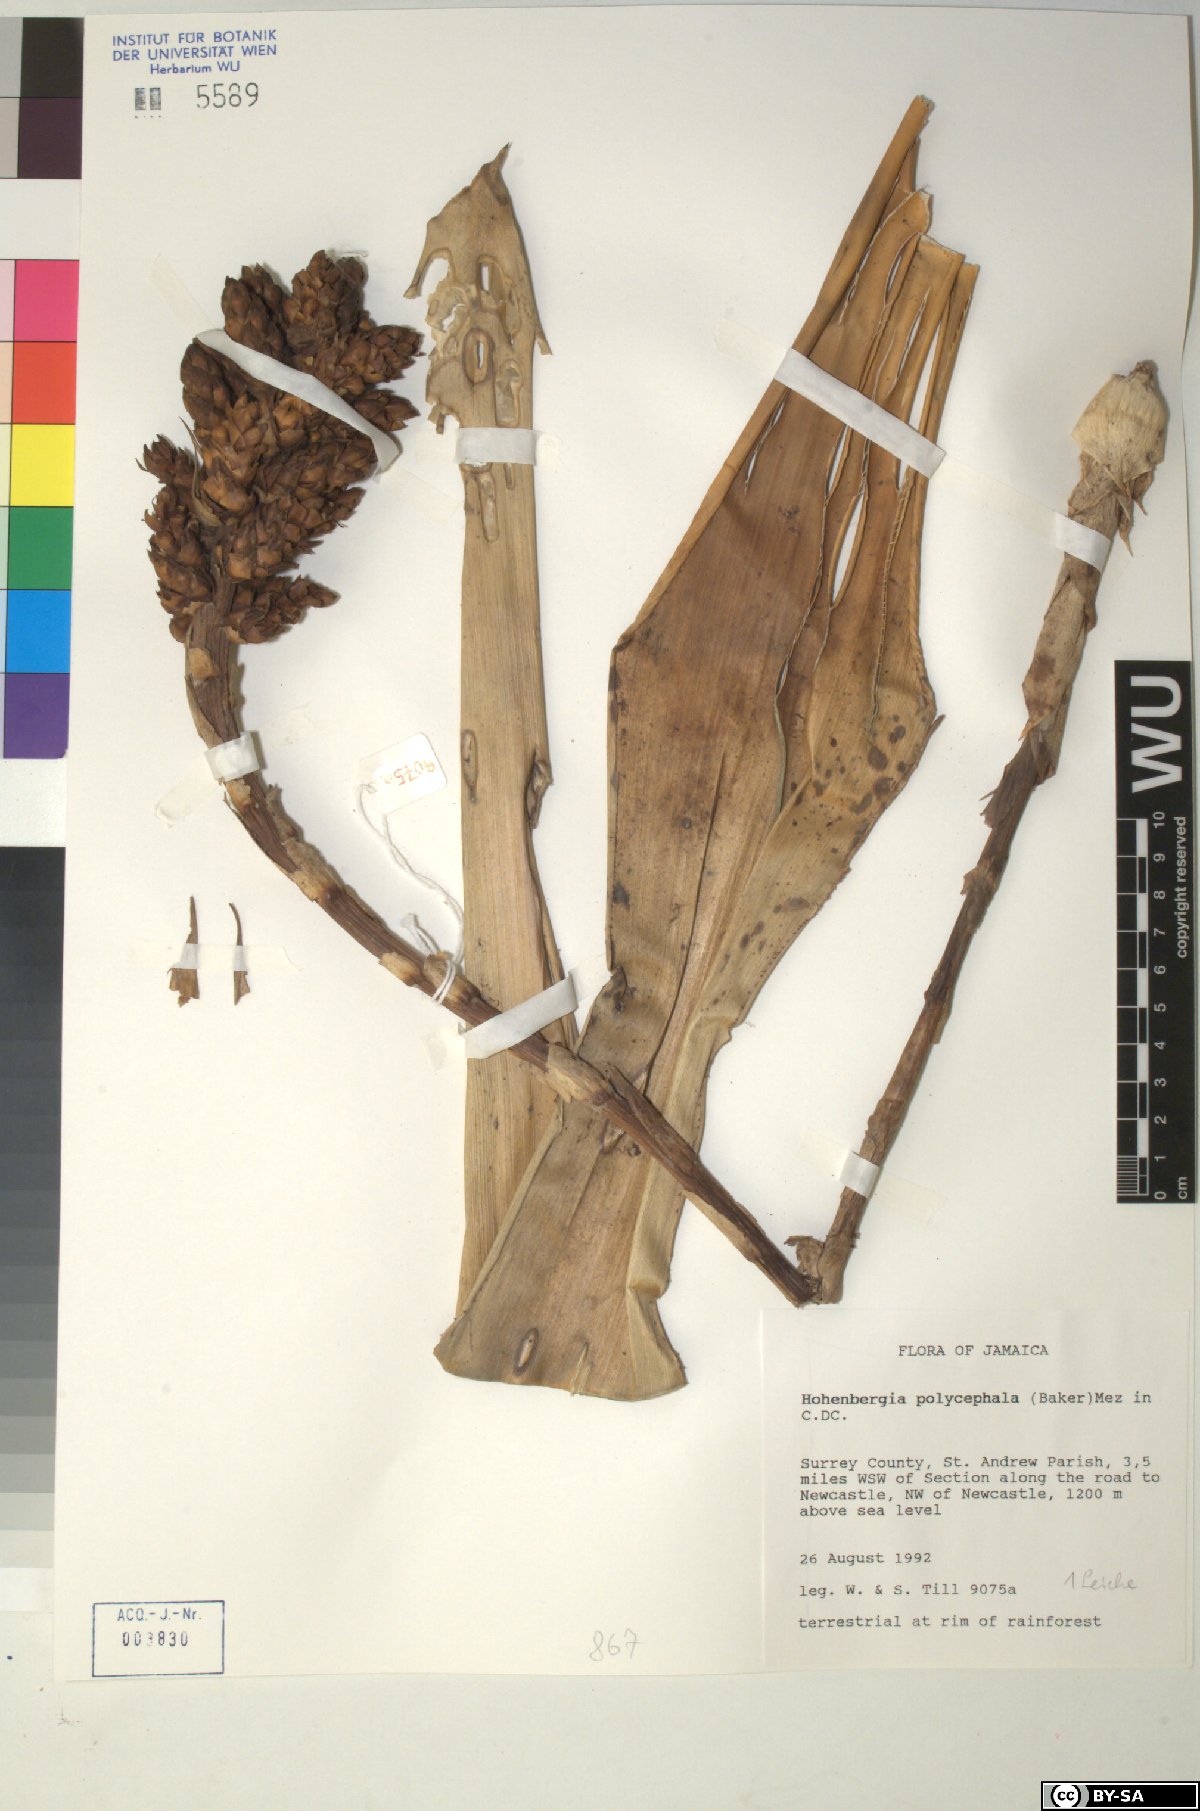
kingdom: Plantae
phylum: Tracheophyta
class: Liliopsida
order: Poales
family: Bromeliaceae
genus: Wittmackia
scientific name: Wittmackia polycephala
